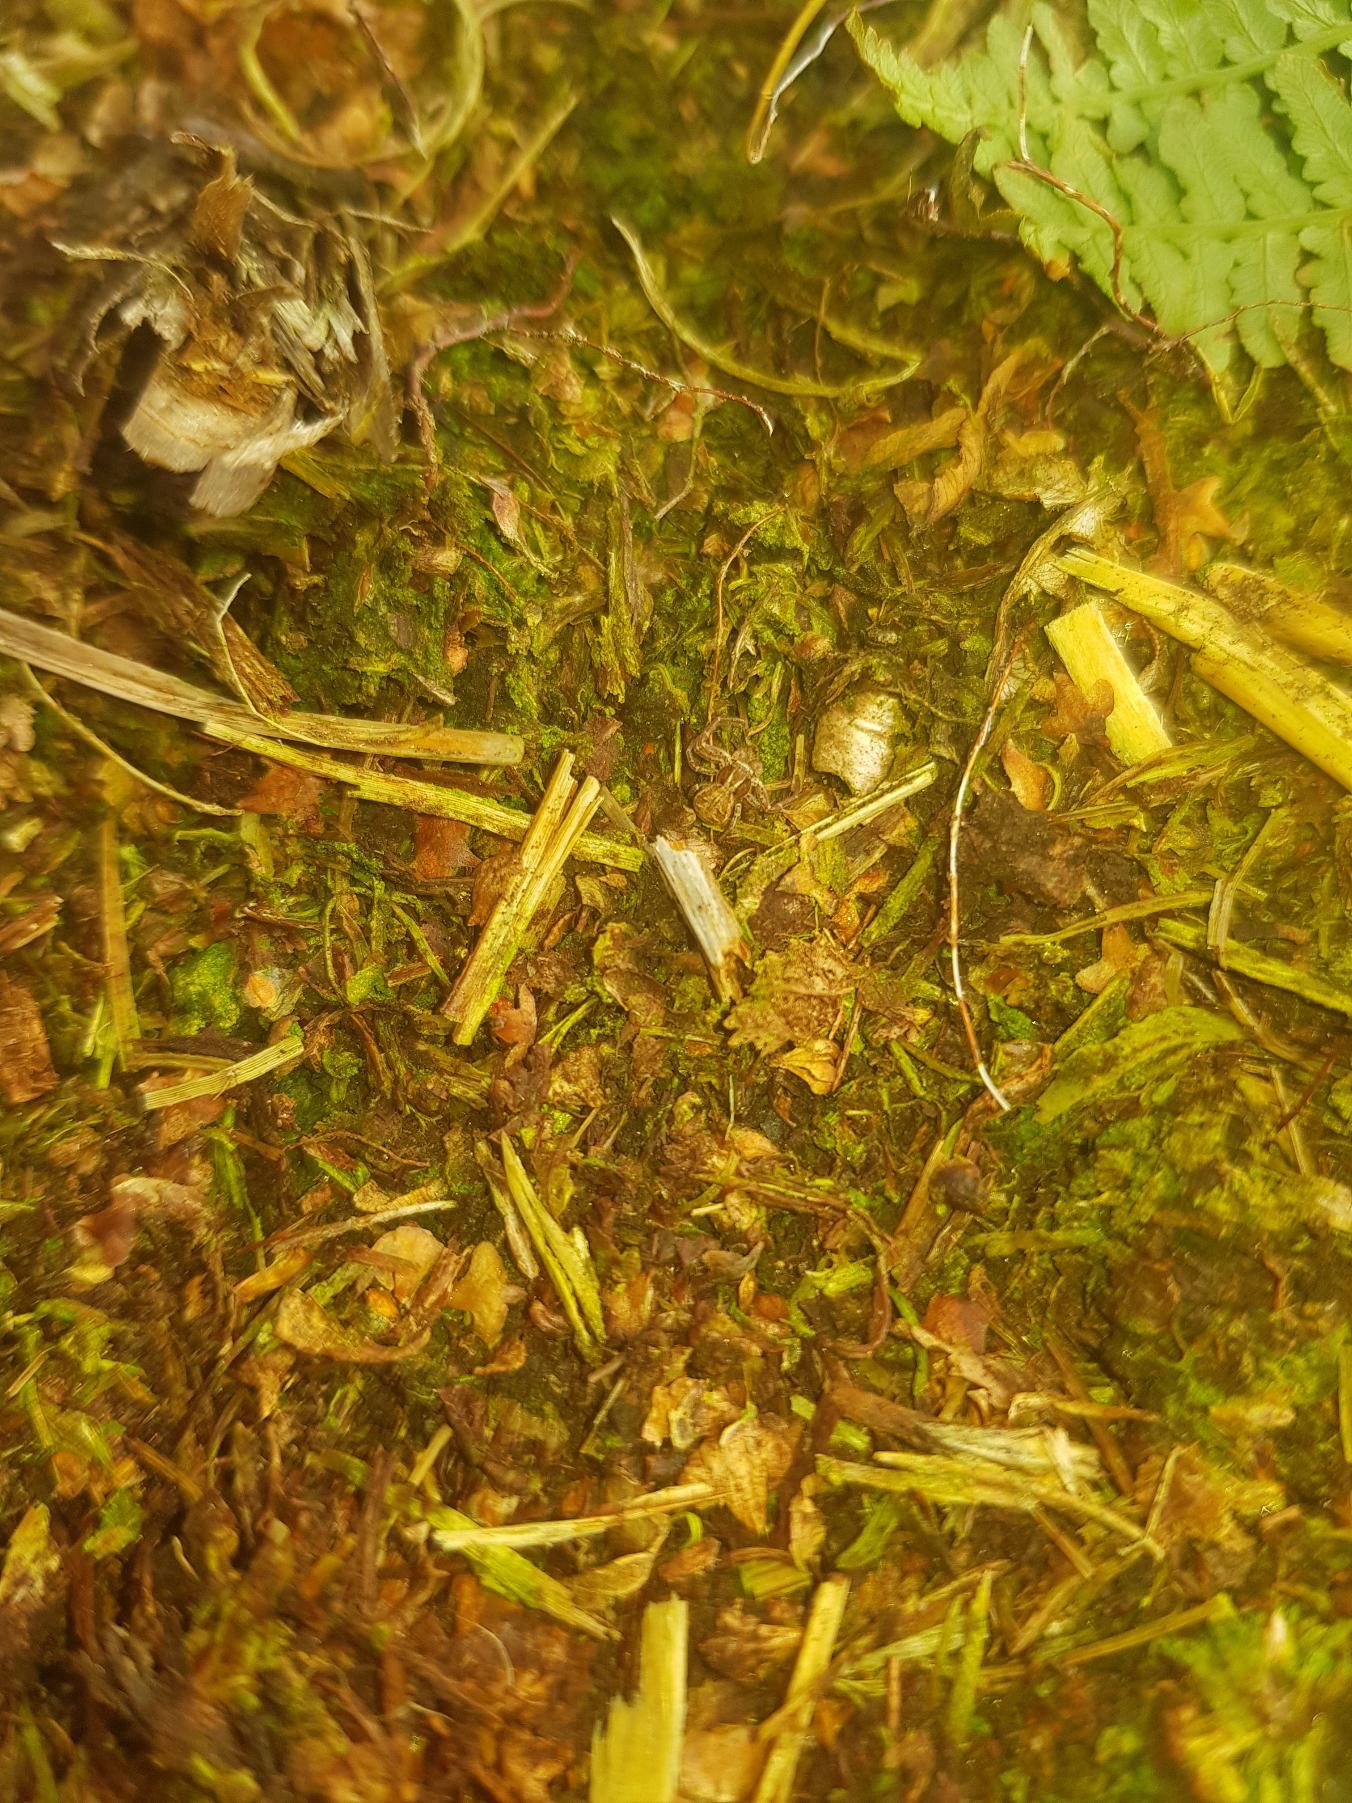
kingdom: Animalia
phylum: Arthropoda
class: Arachnida
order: Araneae
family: Thomisidae
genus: Xysticus
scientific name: Xysticus
